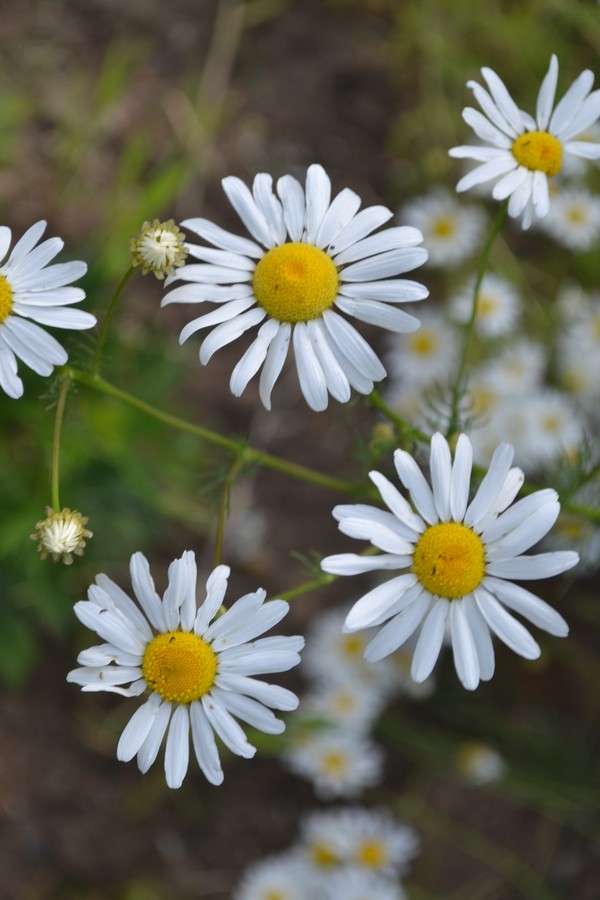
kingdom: Plantae
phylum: Tracheophyta
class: Magnoliopsida
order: Asterales
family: Asteraceae
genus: Tripleurospermum
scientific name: Tripleurospermum inodorum
